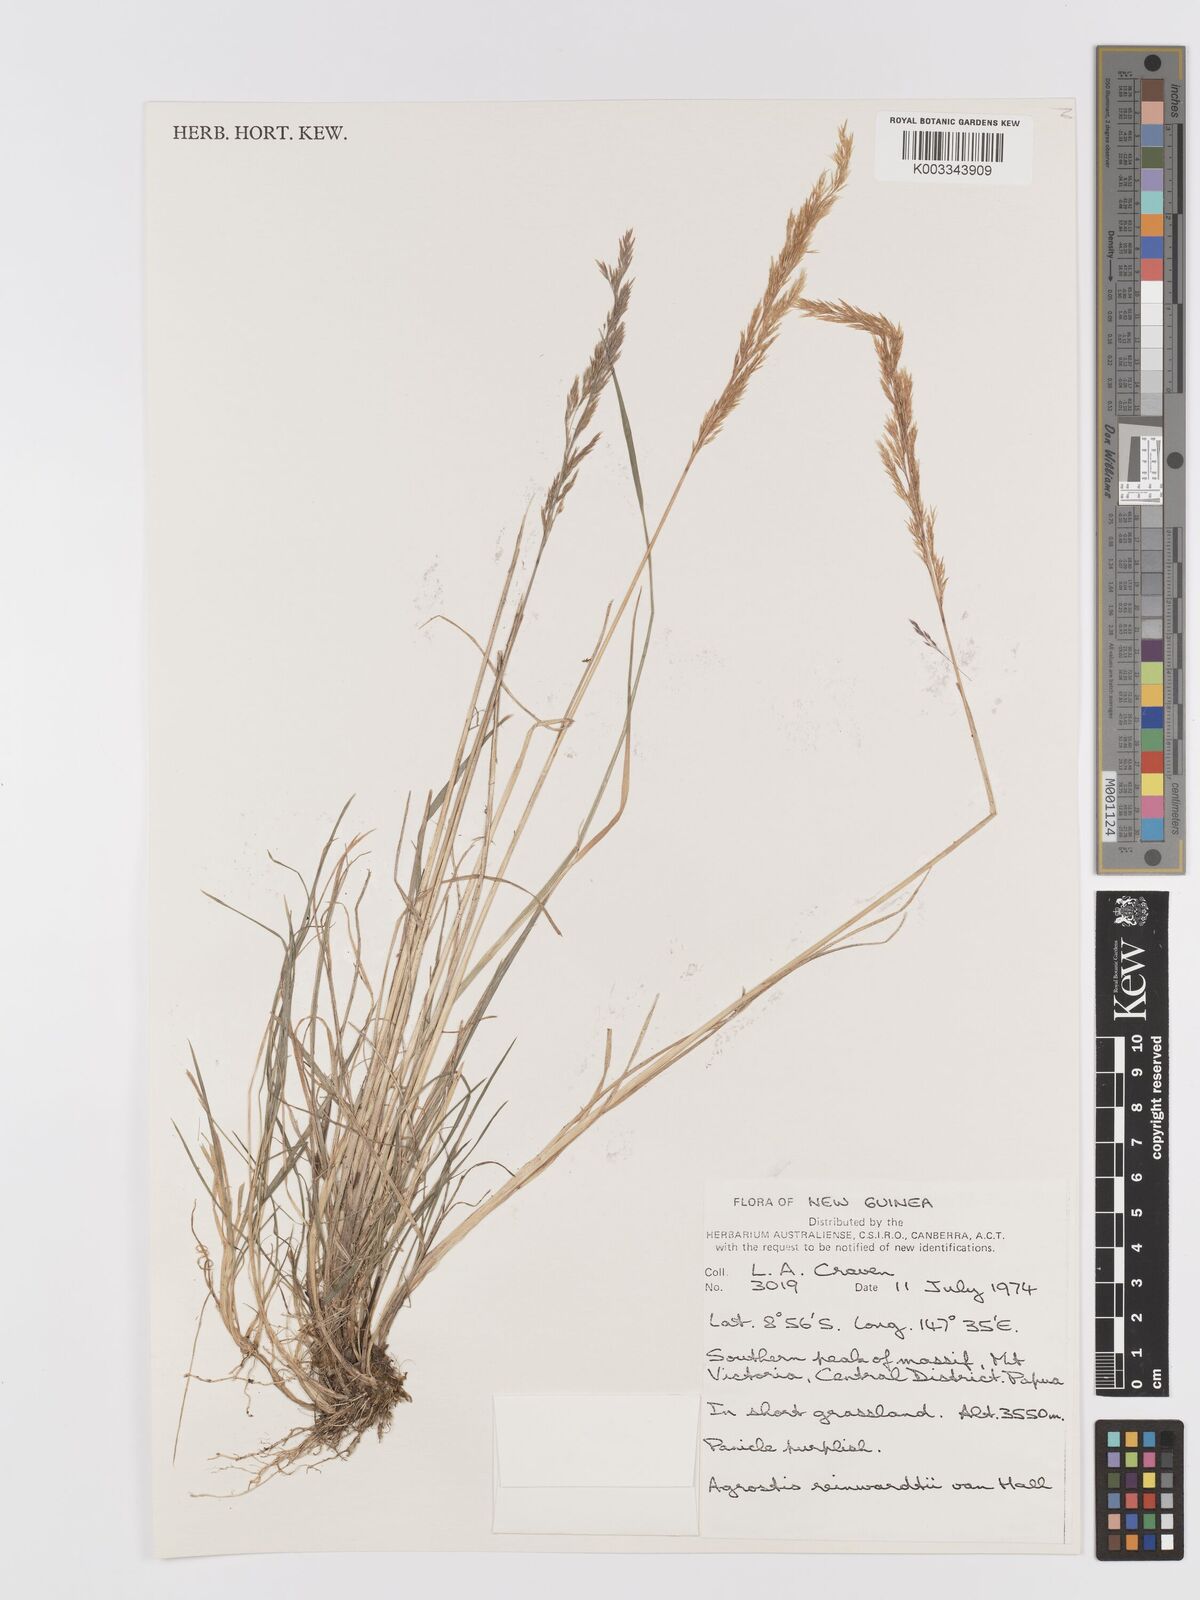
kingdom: Plantae
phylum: Tracheophyta
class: Liliopsida
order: Poales
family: Poaceae
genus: Agrostis
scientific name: Agrostis infirma
